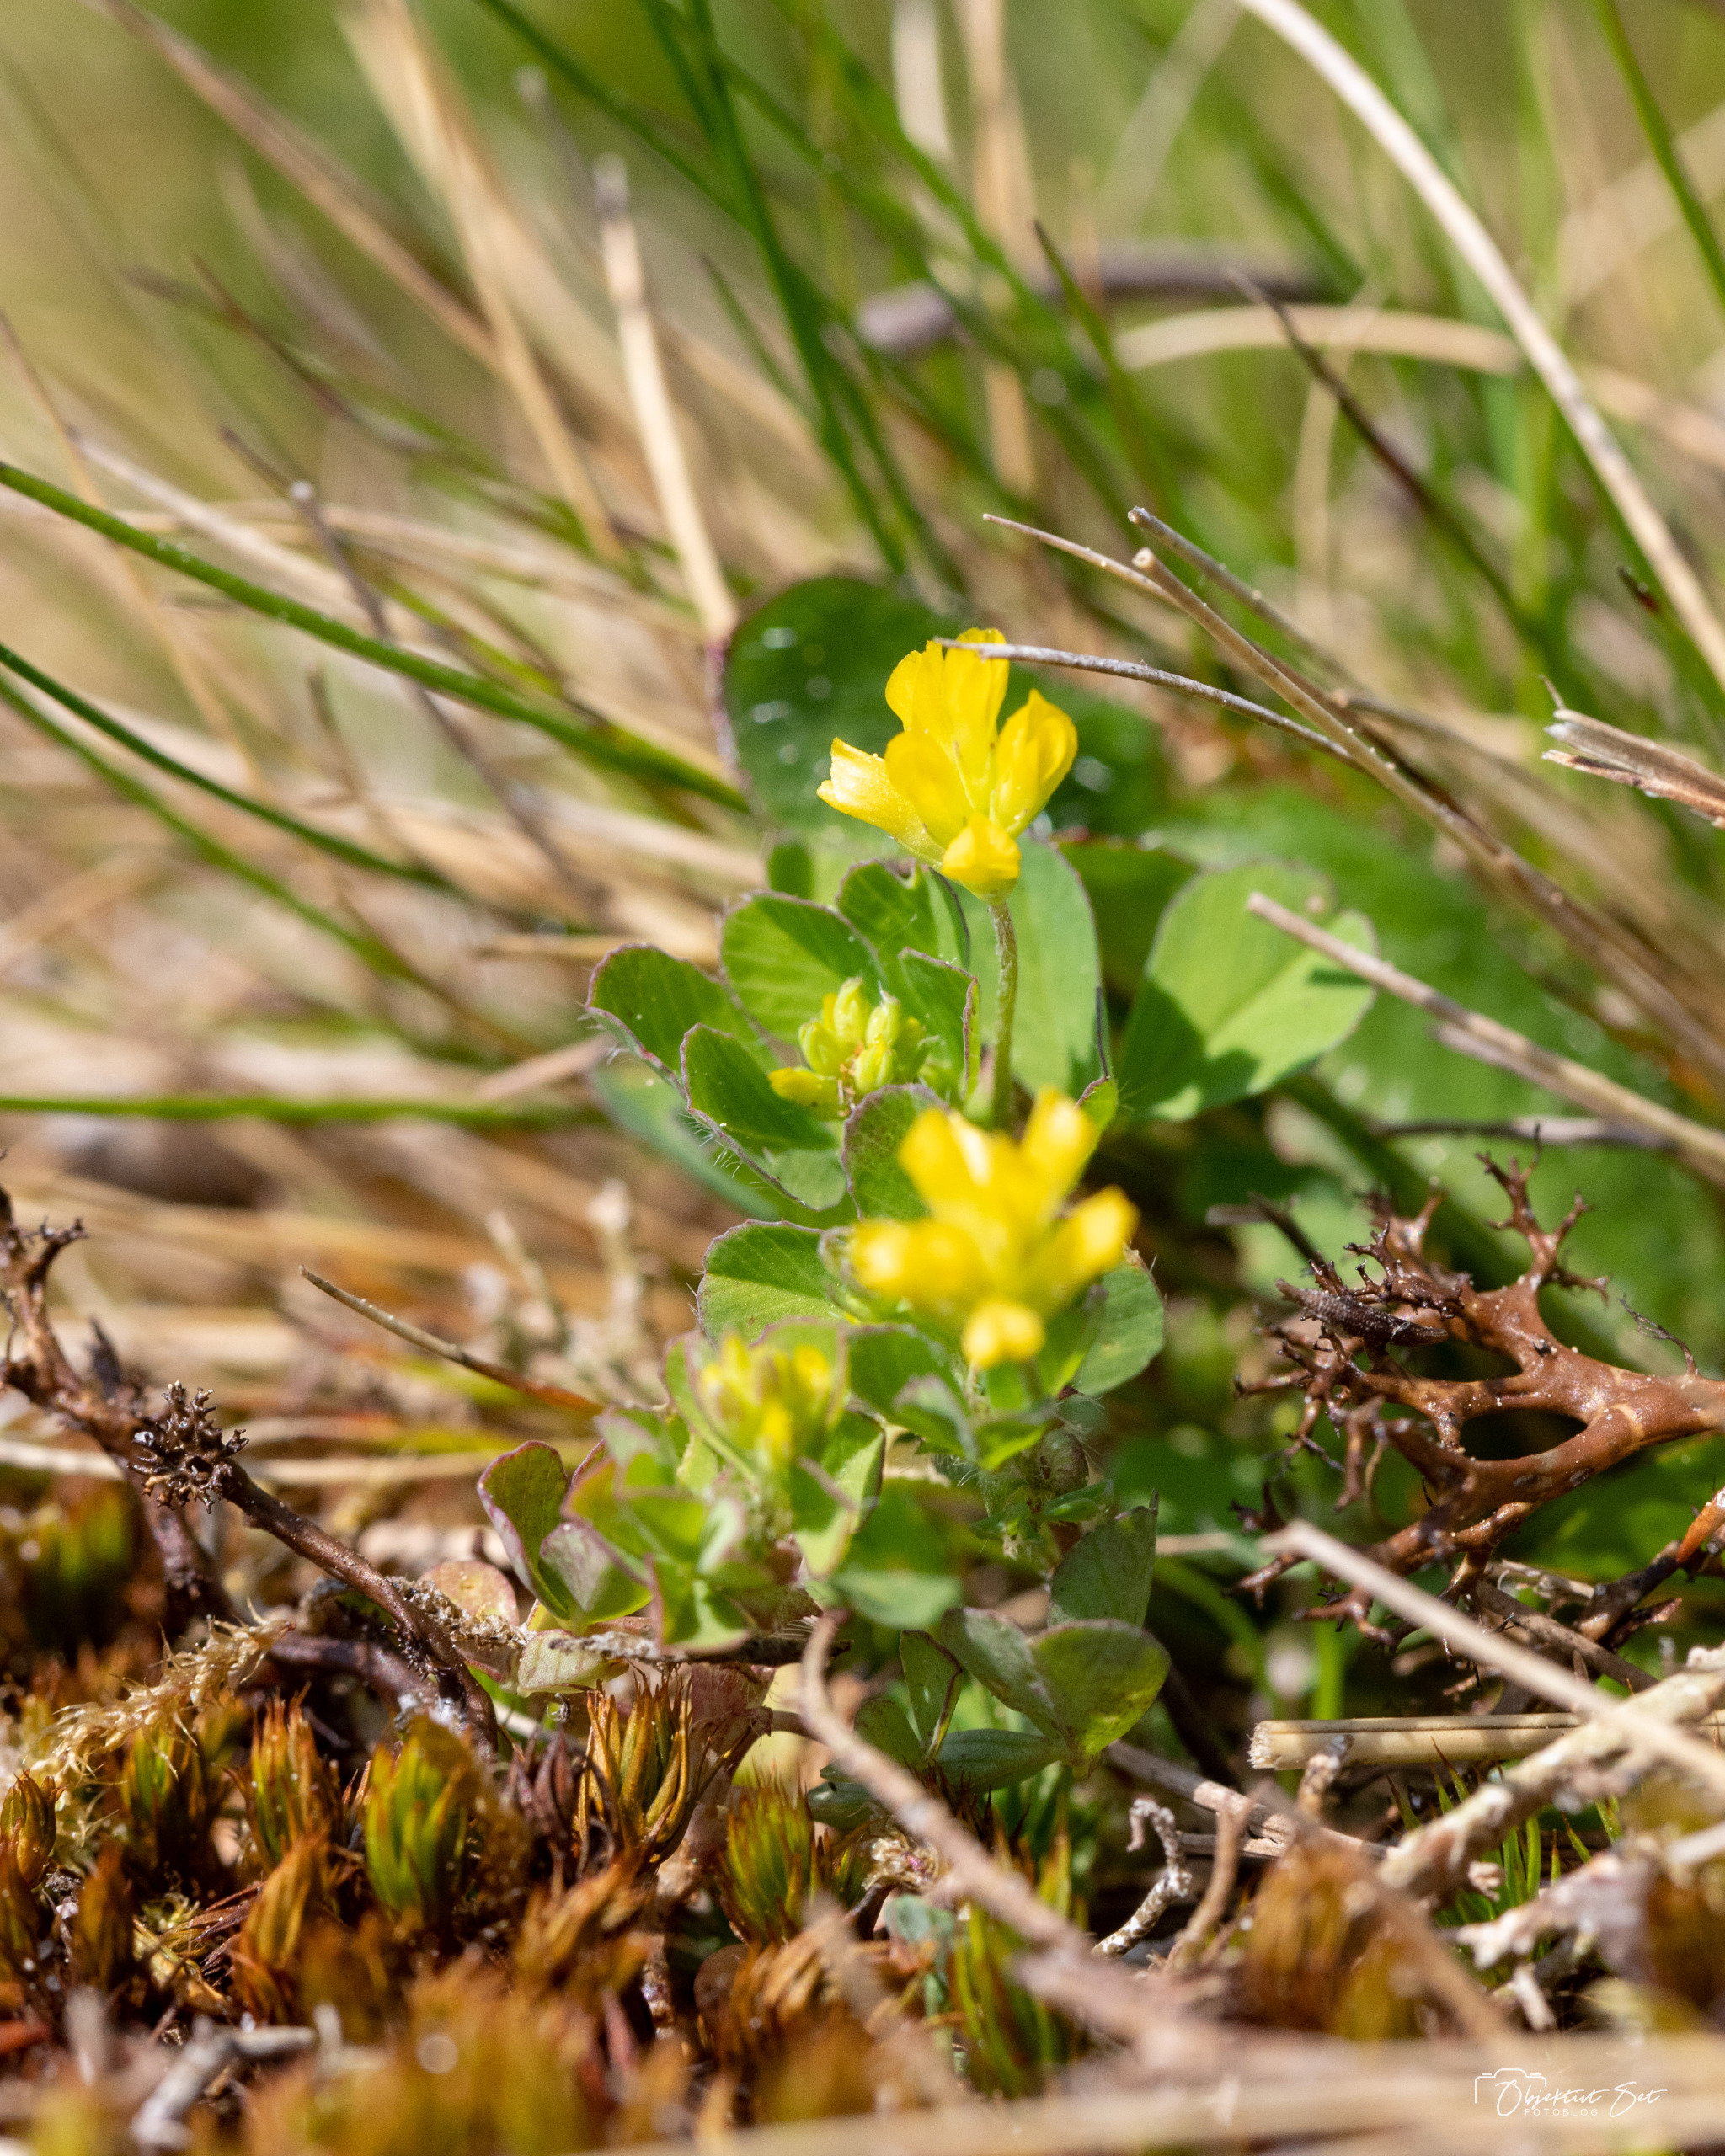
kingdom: Plantae
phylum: Tracheophyta
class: Magnoliopsida
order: Fabales
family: Fabaceae
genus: Trifolium
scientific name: Trifolium dubium
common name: Fin kløver
